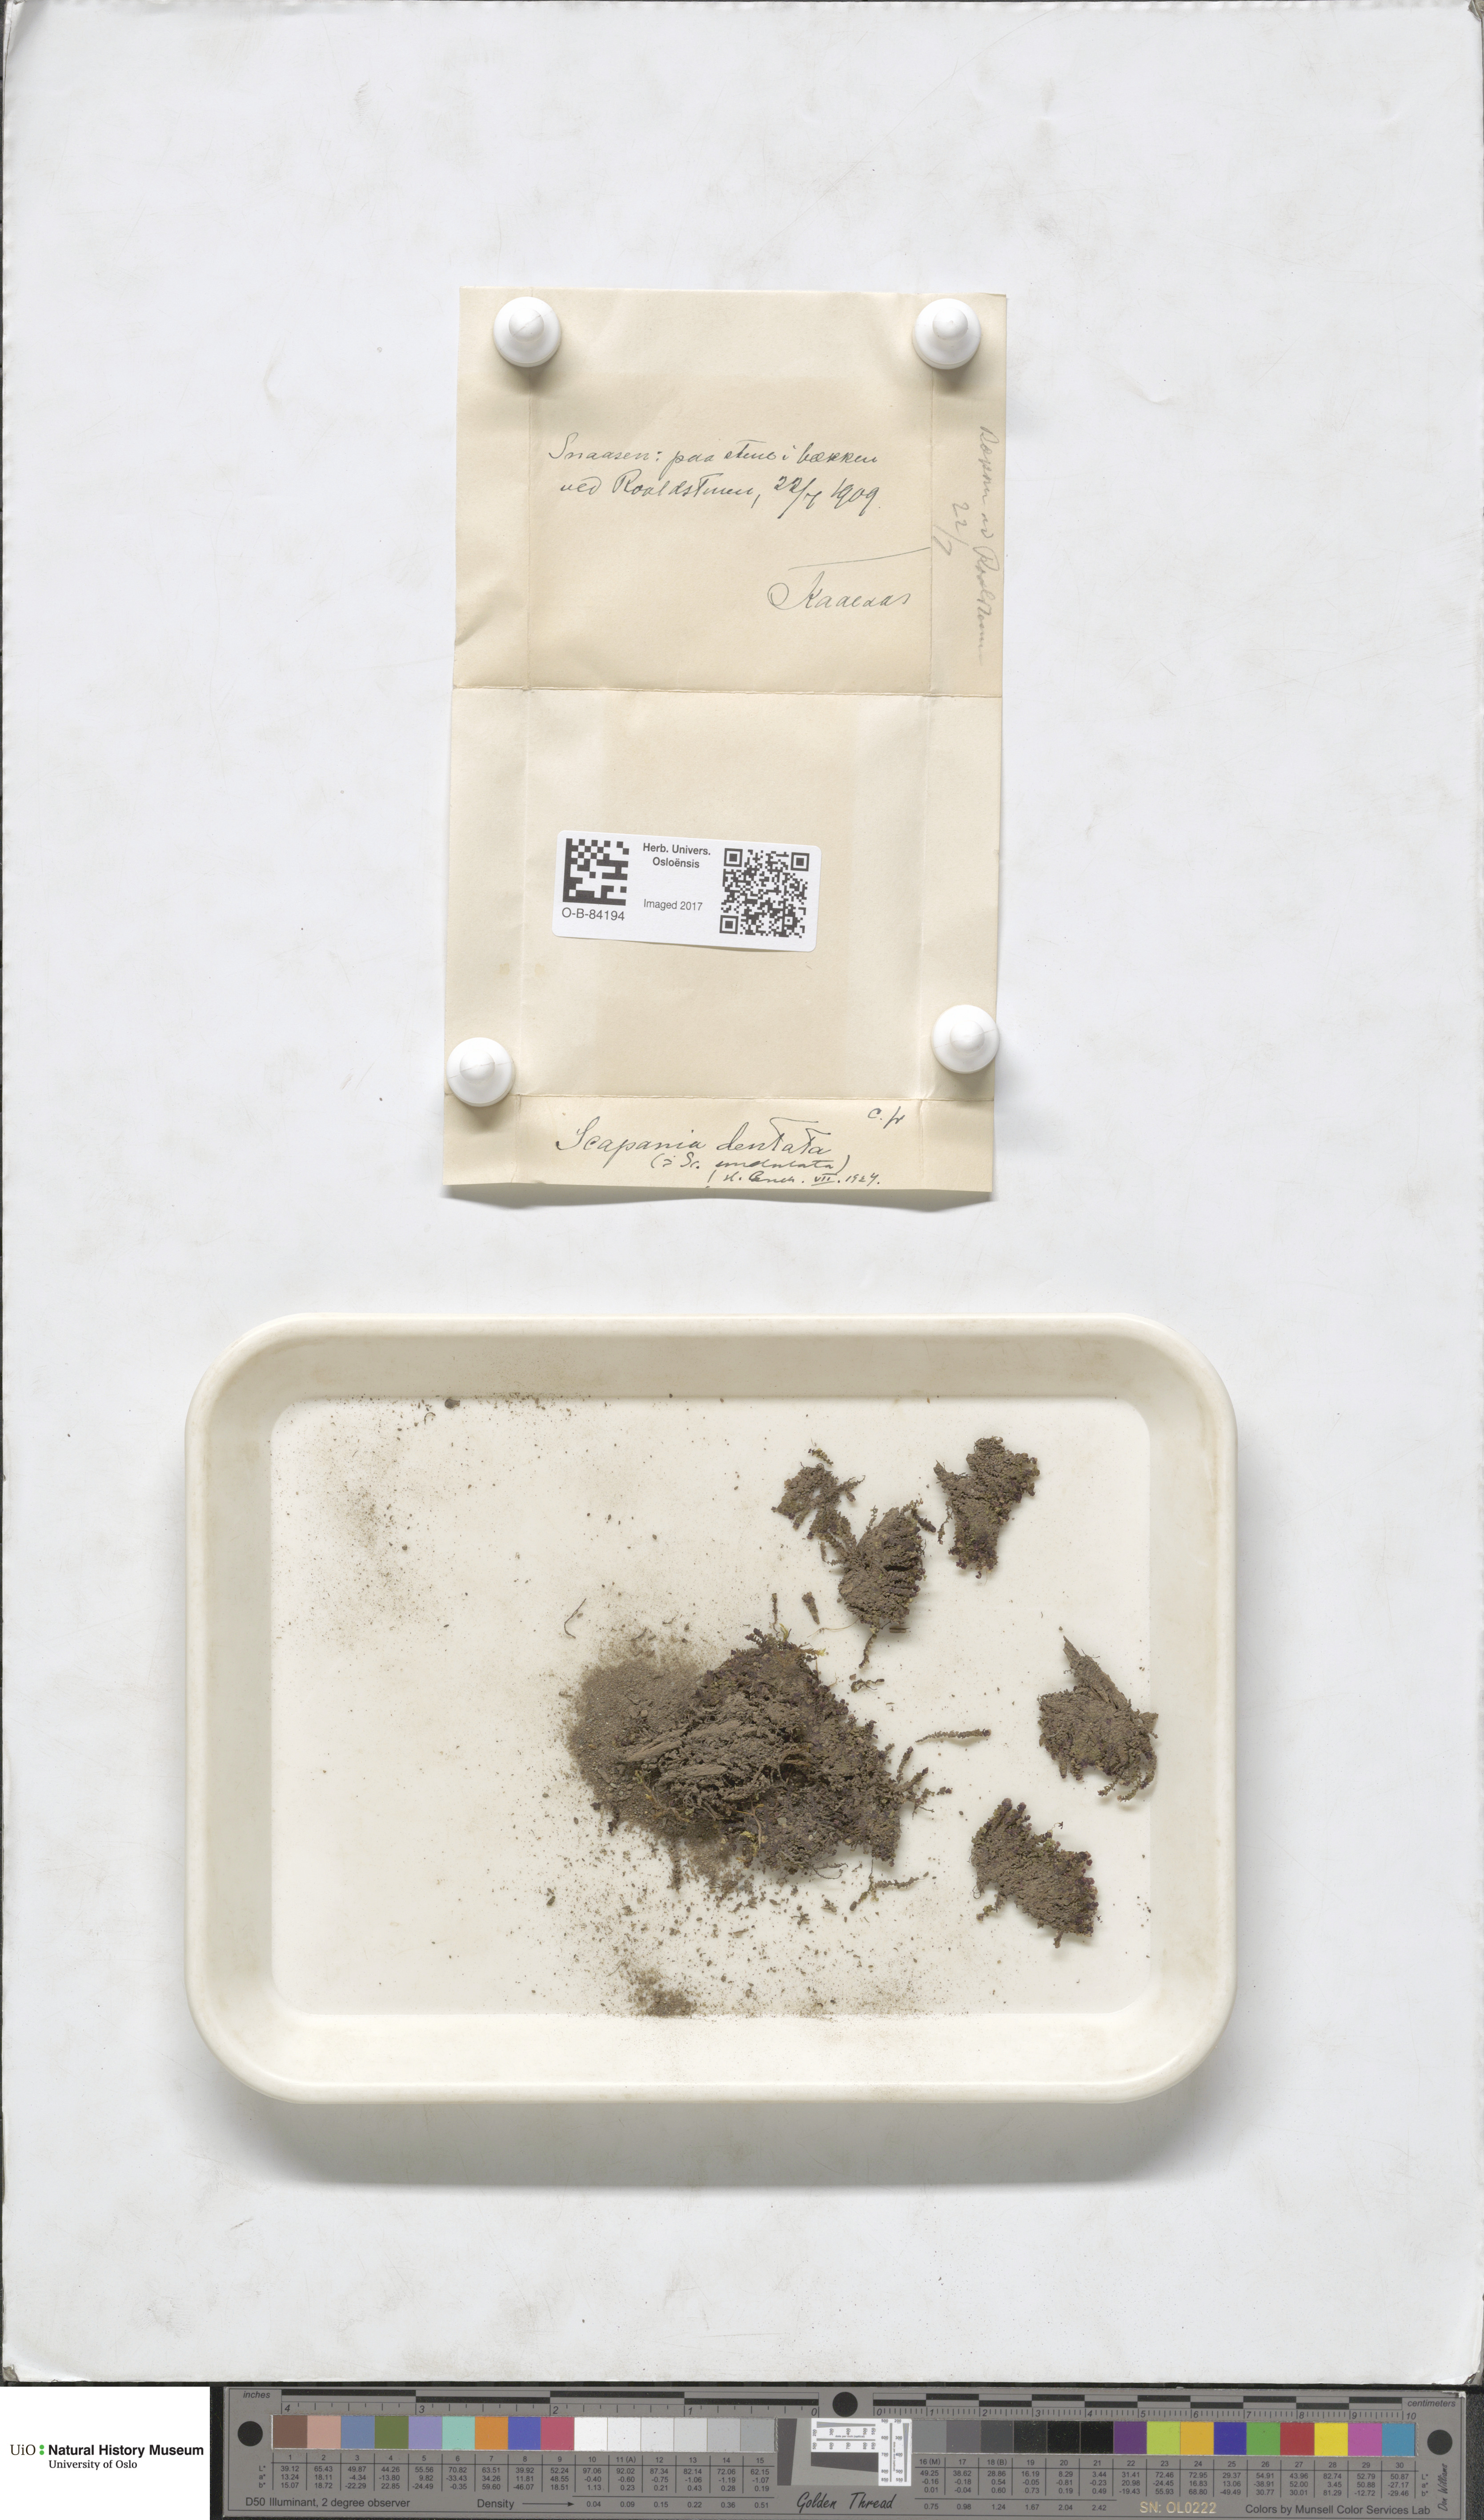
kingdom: Plantae
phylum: Marchantiophyta
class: Jungermanniopsida
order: Jungermanniales
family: Scapaniaceae
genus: Scapania
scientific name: Scapania undulata
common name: Water earwort
